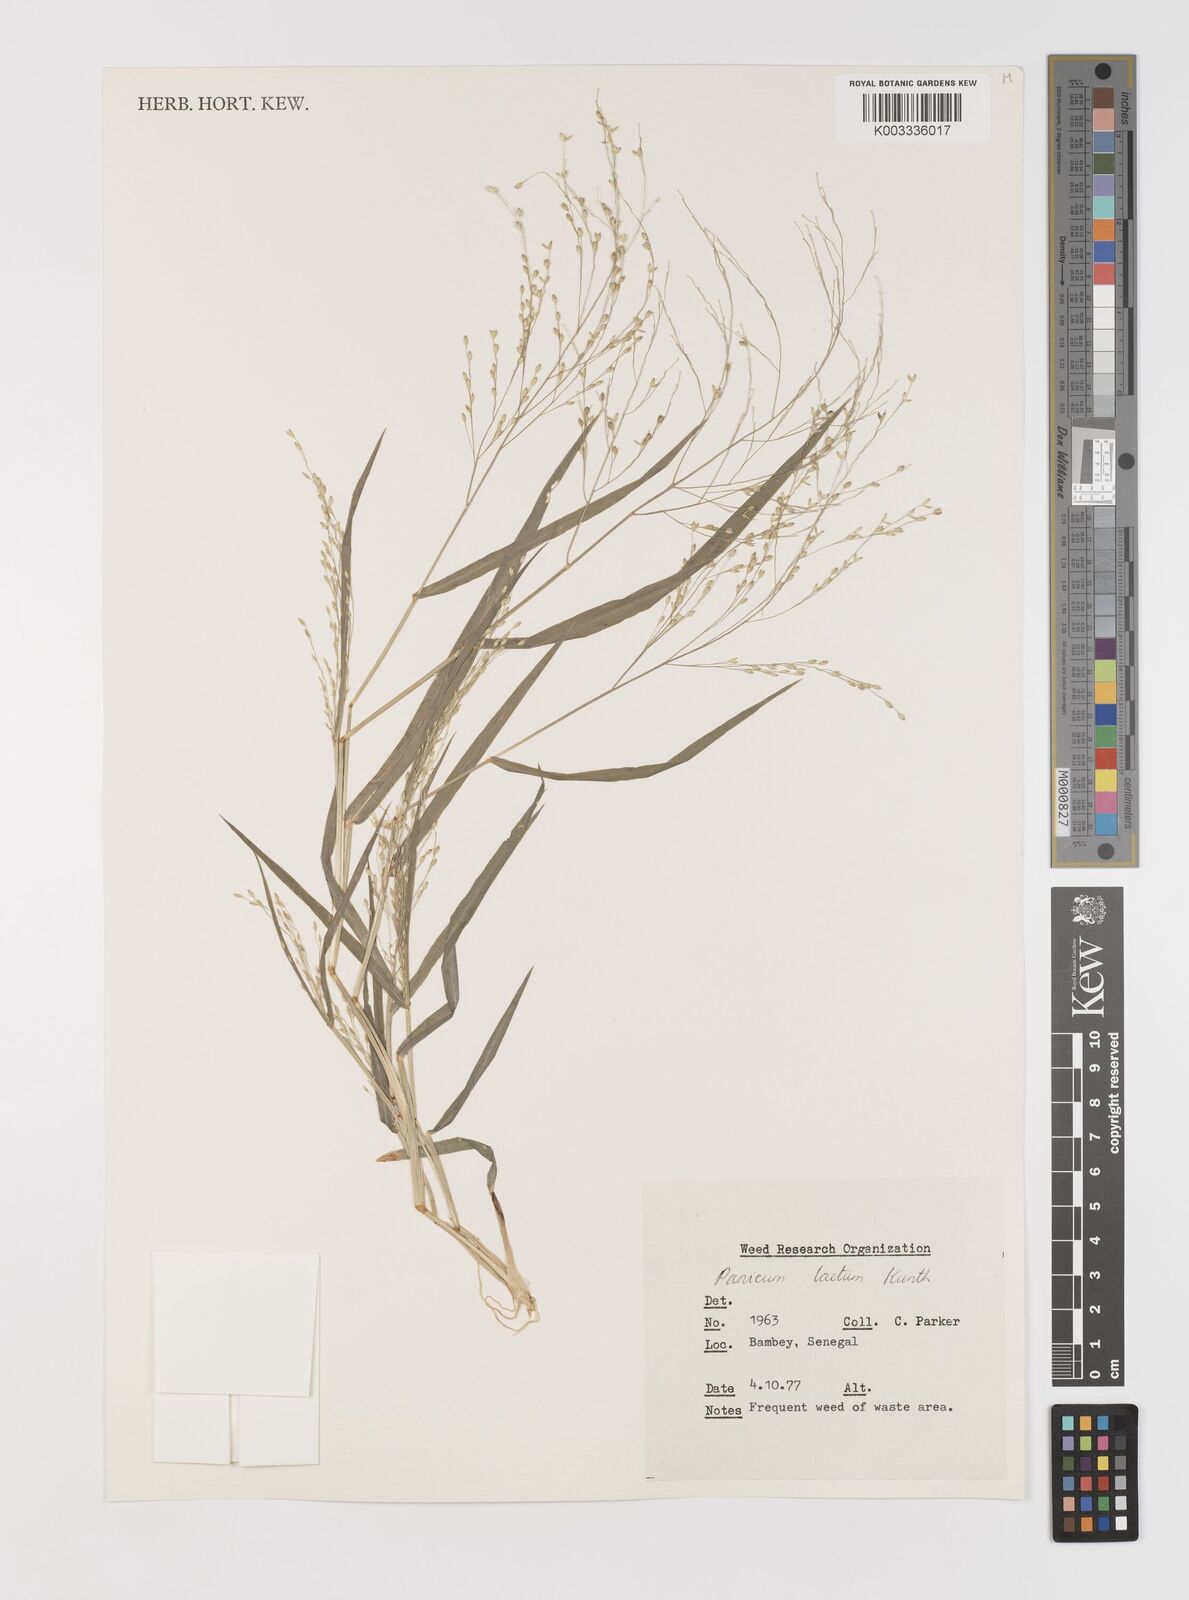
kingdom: Plantae
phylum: Tracheophyta
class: Liliopsida
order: Poales
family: Poaceae
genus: Panicum
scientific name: Panicum laetum
